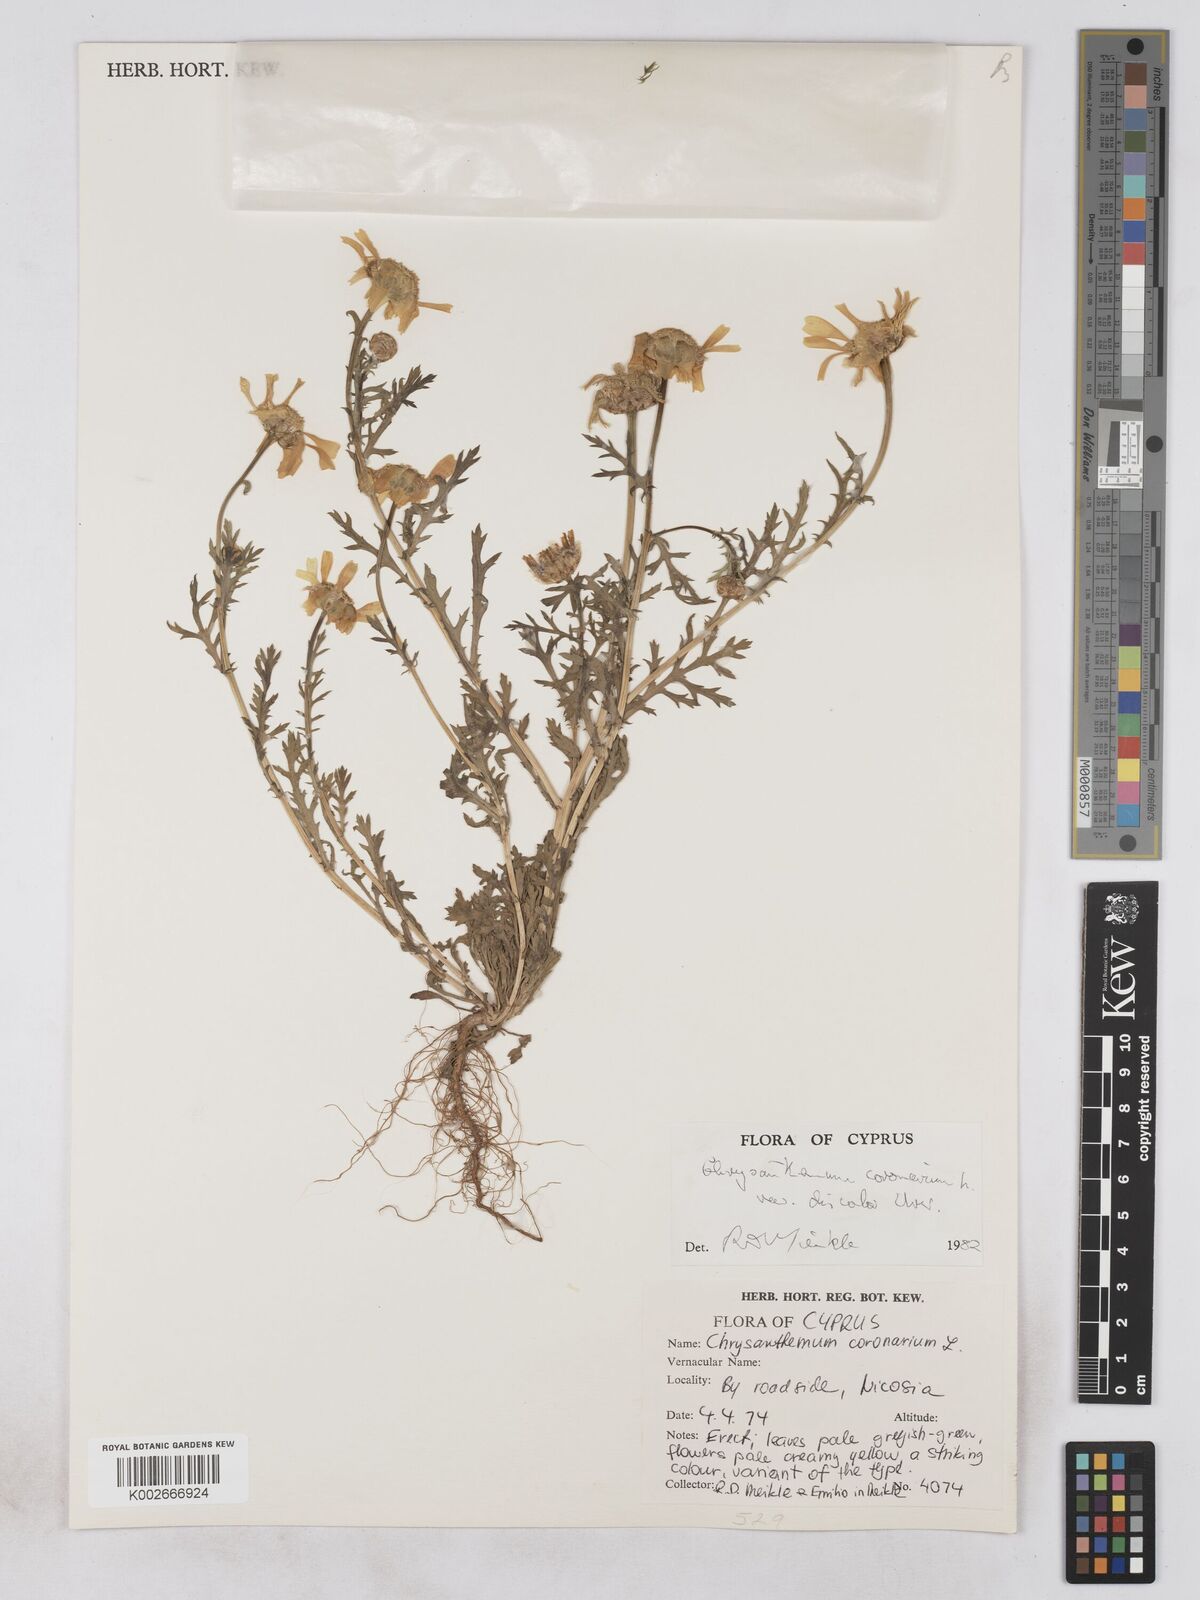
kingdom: Plantae
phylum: Tracheophyta
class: Magnoliopsida
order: Asterales
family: Asteraceae
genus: Glebionis
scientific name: Glebionis coronaria
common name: Crowndaisy
